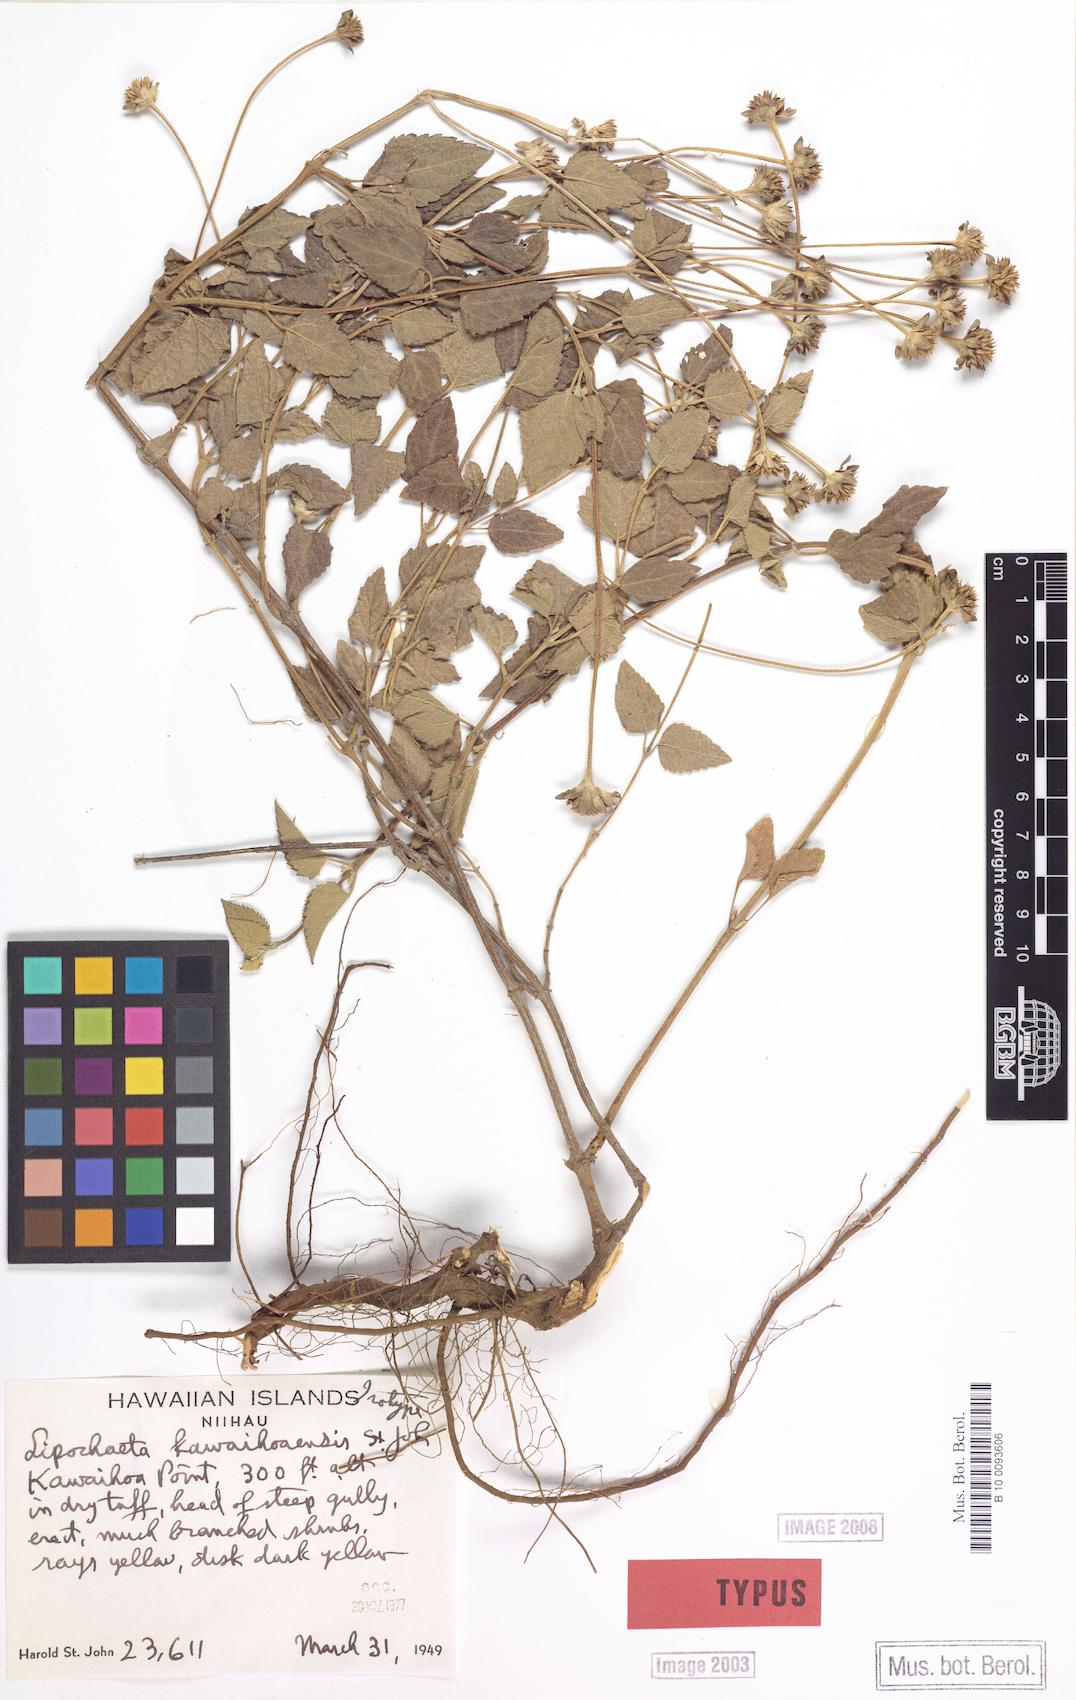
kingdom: Plantae
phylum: Tracheophyta
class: Magnoliopsida
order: Asterales
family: Asteraceae
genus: Lipochaeta
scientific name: Lipochaeta perdita
